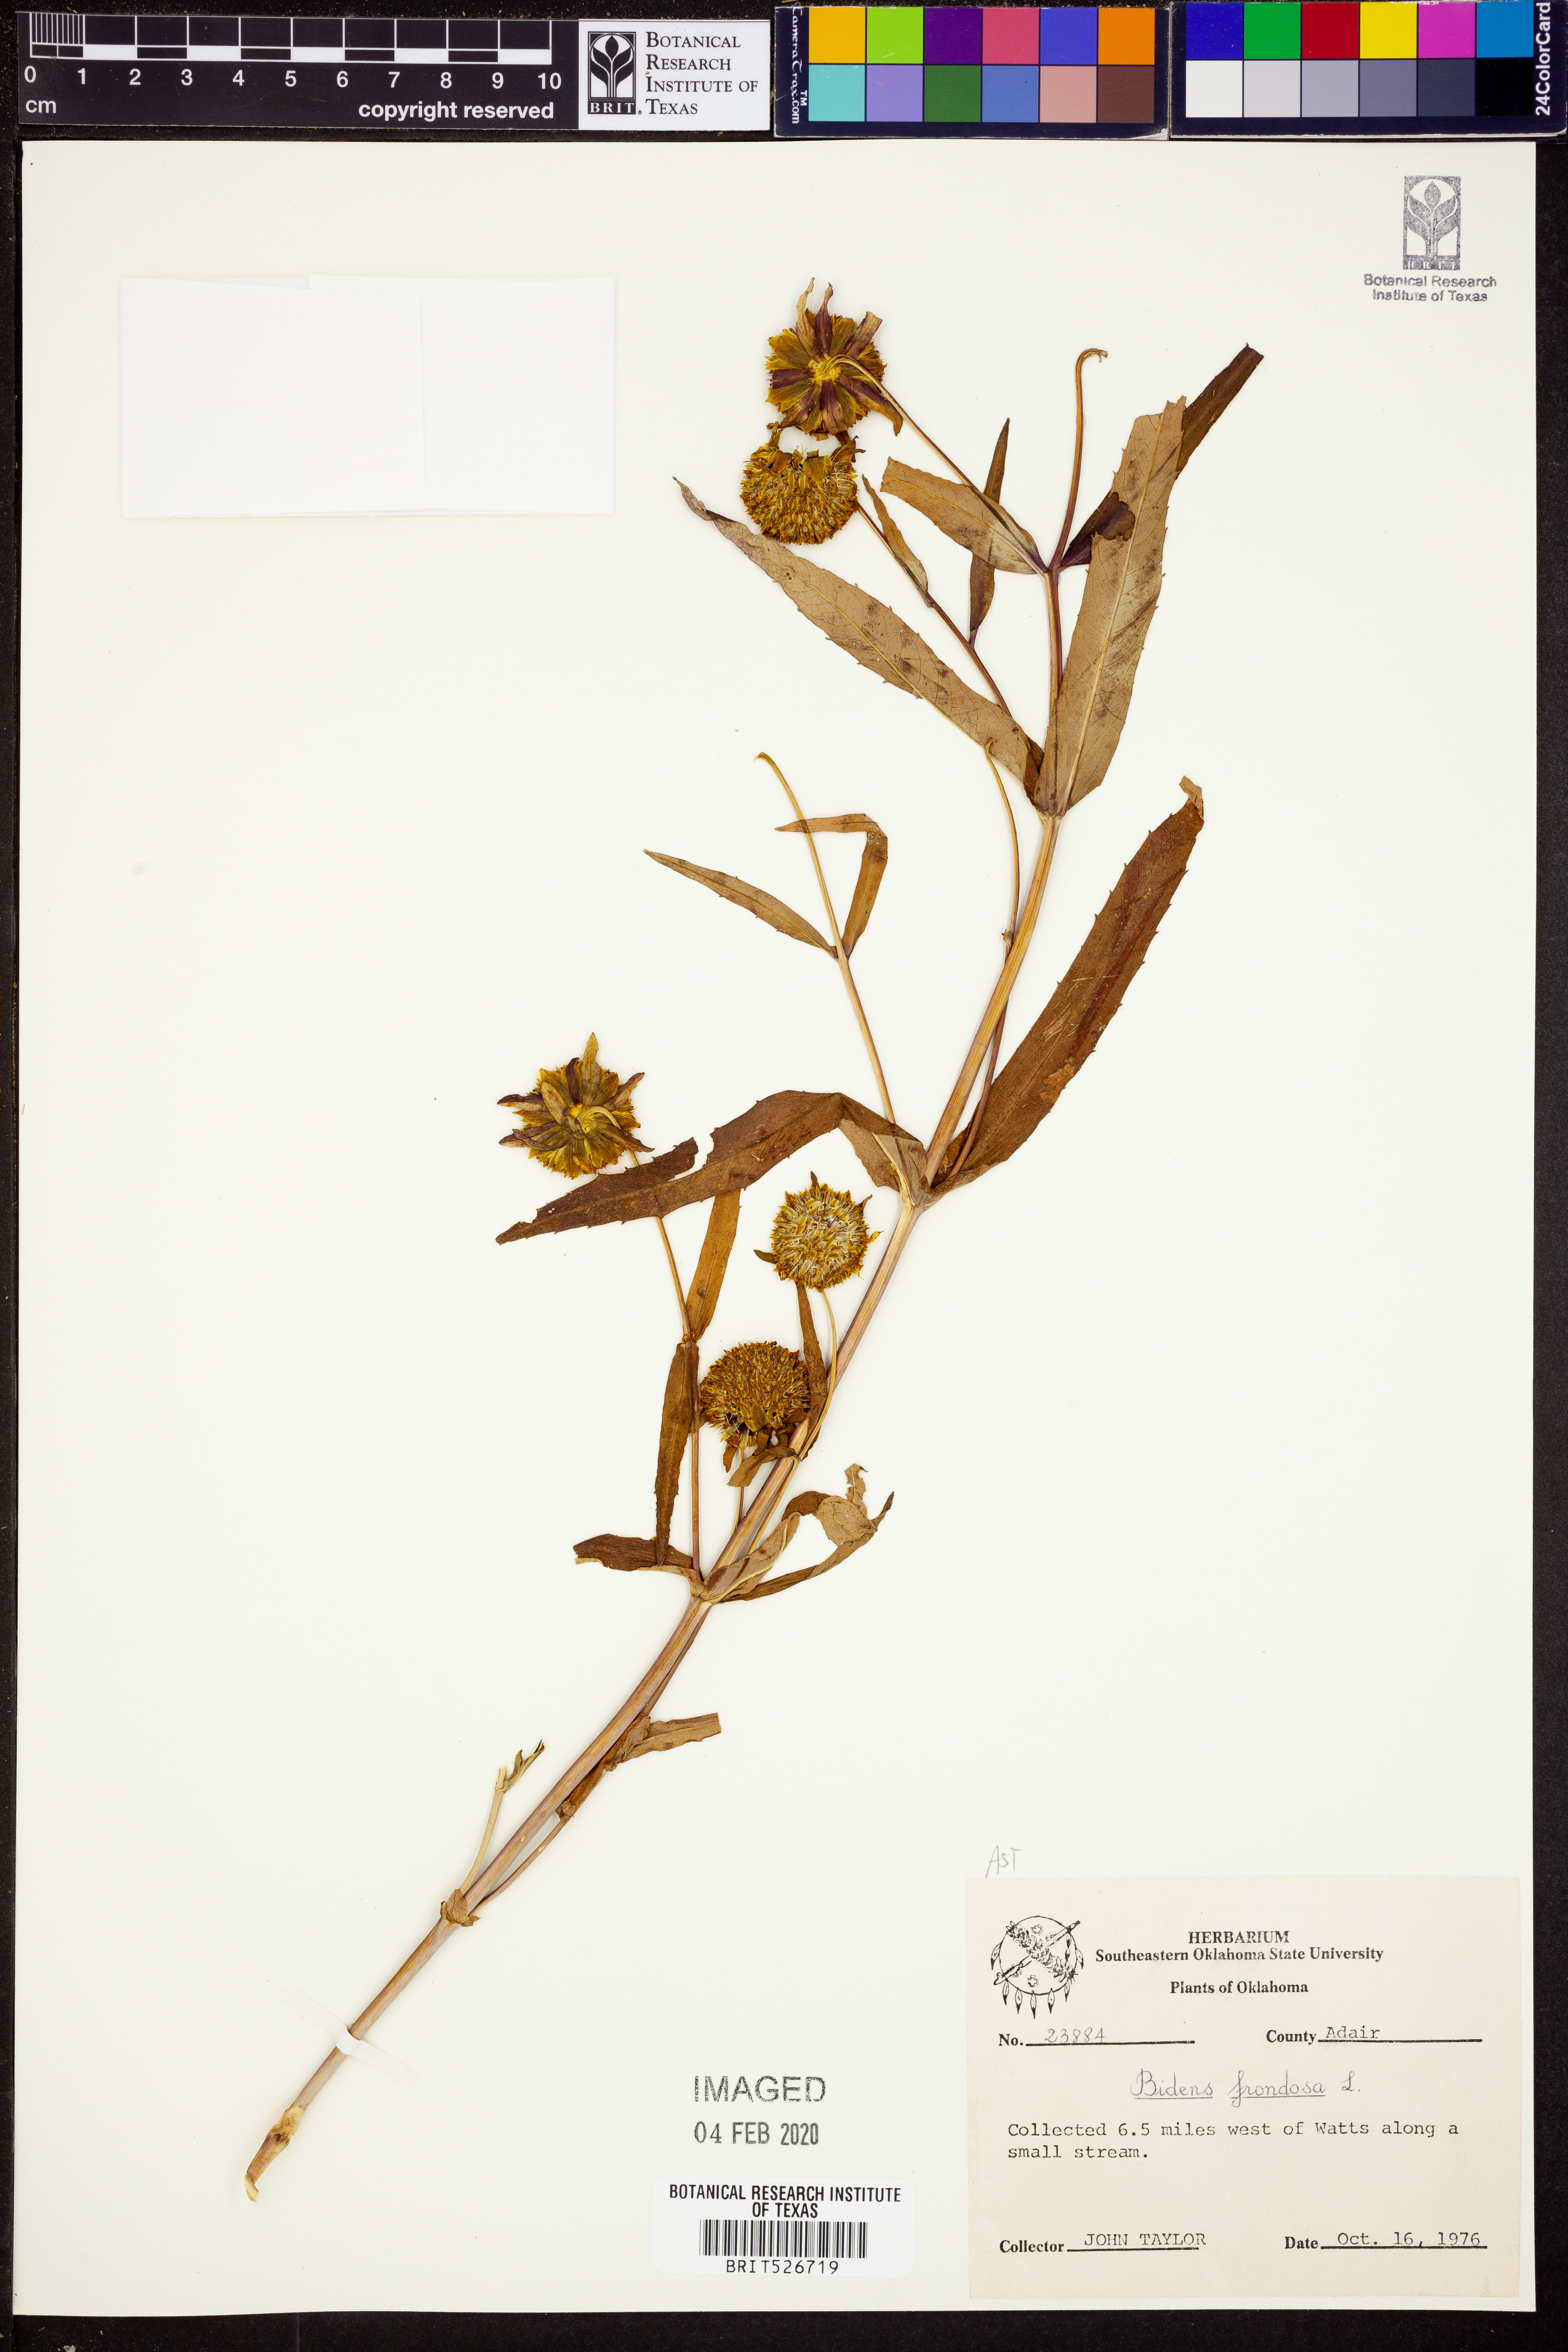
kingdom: Plantae
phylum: Tracheophyta
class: Magnoliopsida
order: Asterales
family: Asteraceae
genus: Bidens
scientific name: Bidens frondosa
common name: Beggarticks
